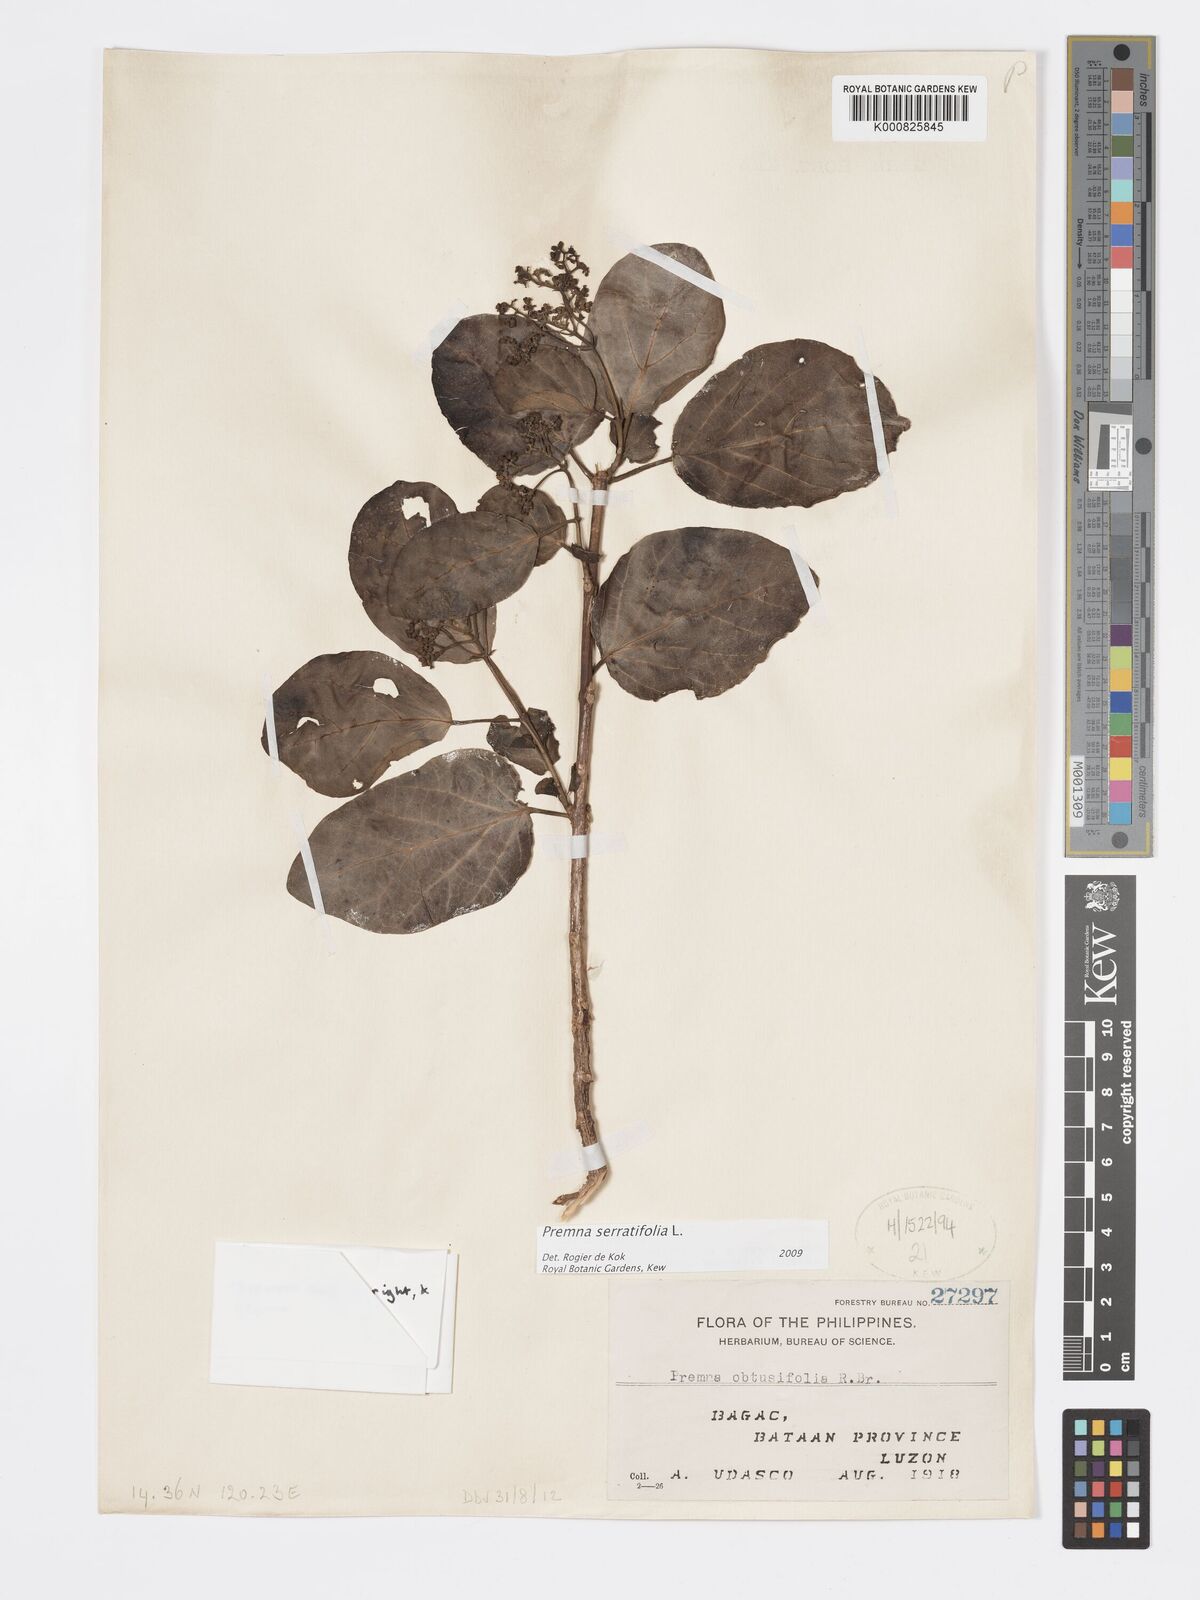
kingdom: Plantae
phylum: Tracheophyta
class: Magnoliopsida
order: Lamiales
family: Lamiaceae
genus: Premna
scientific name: Premna serratifolia
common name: Bastard guelder
